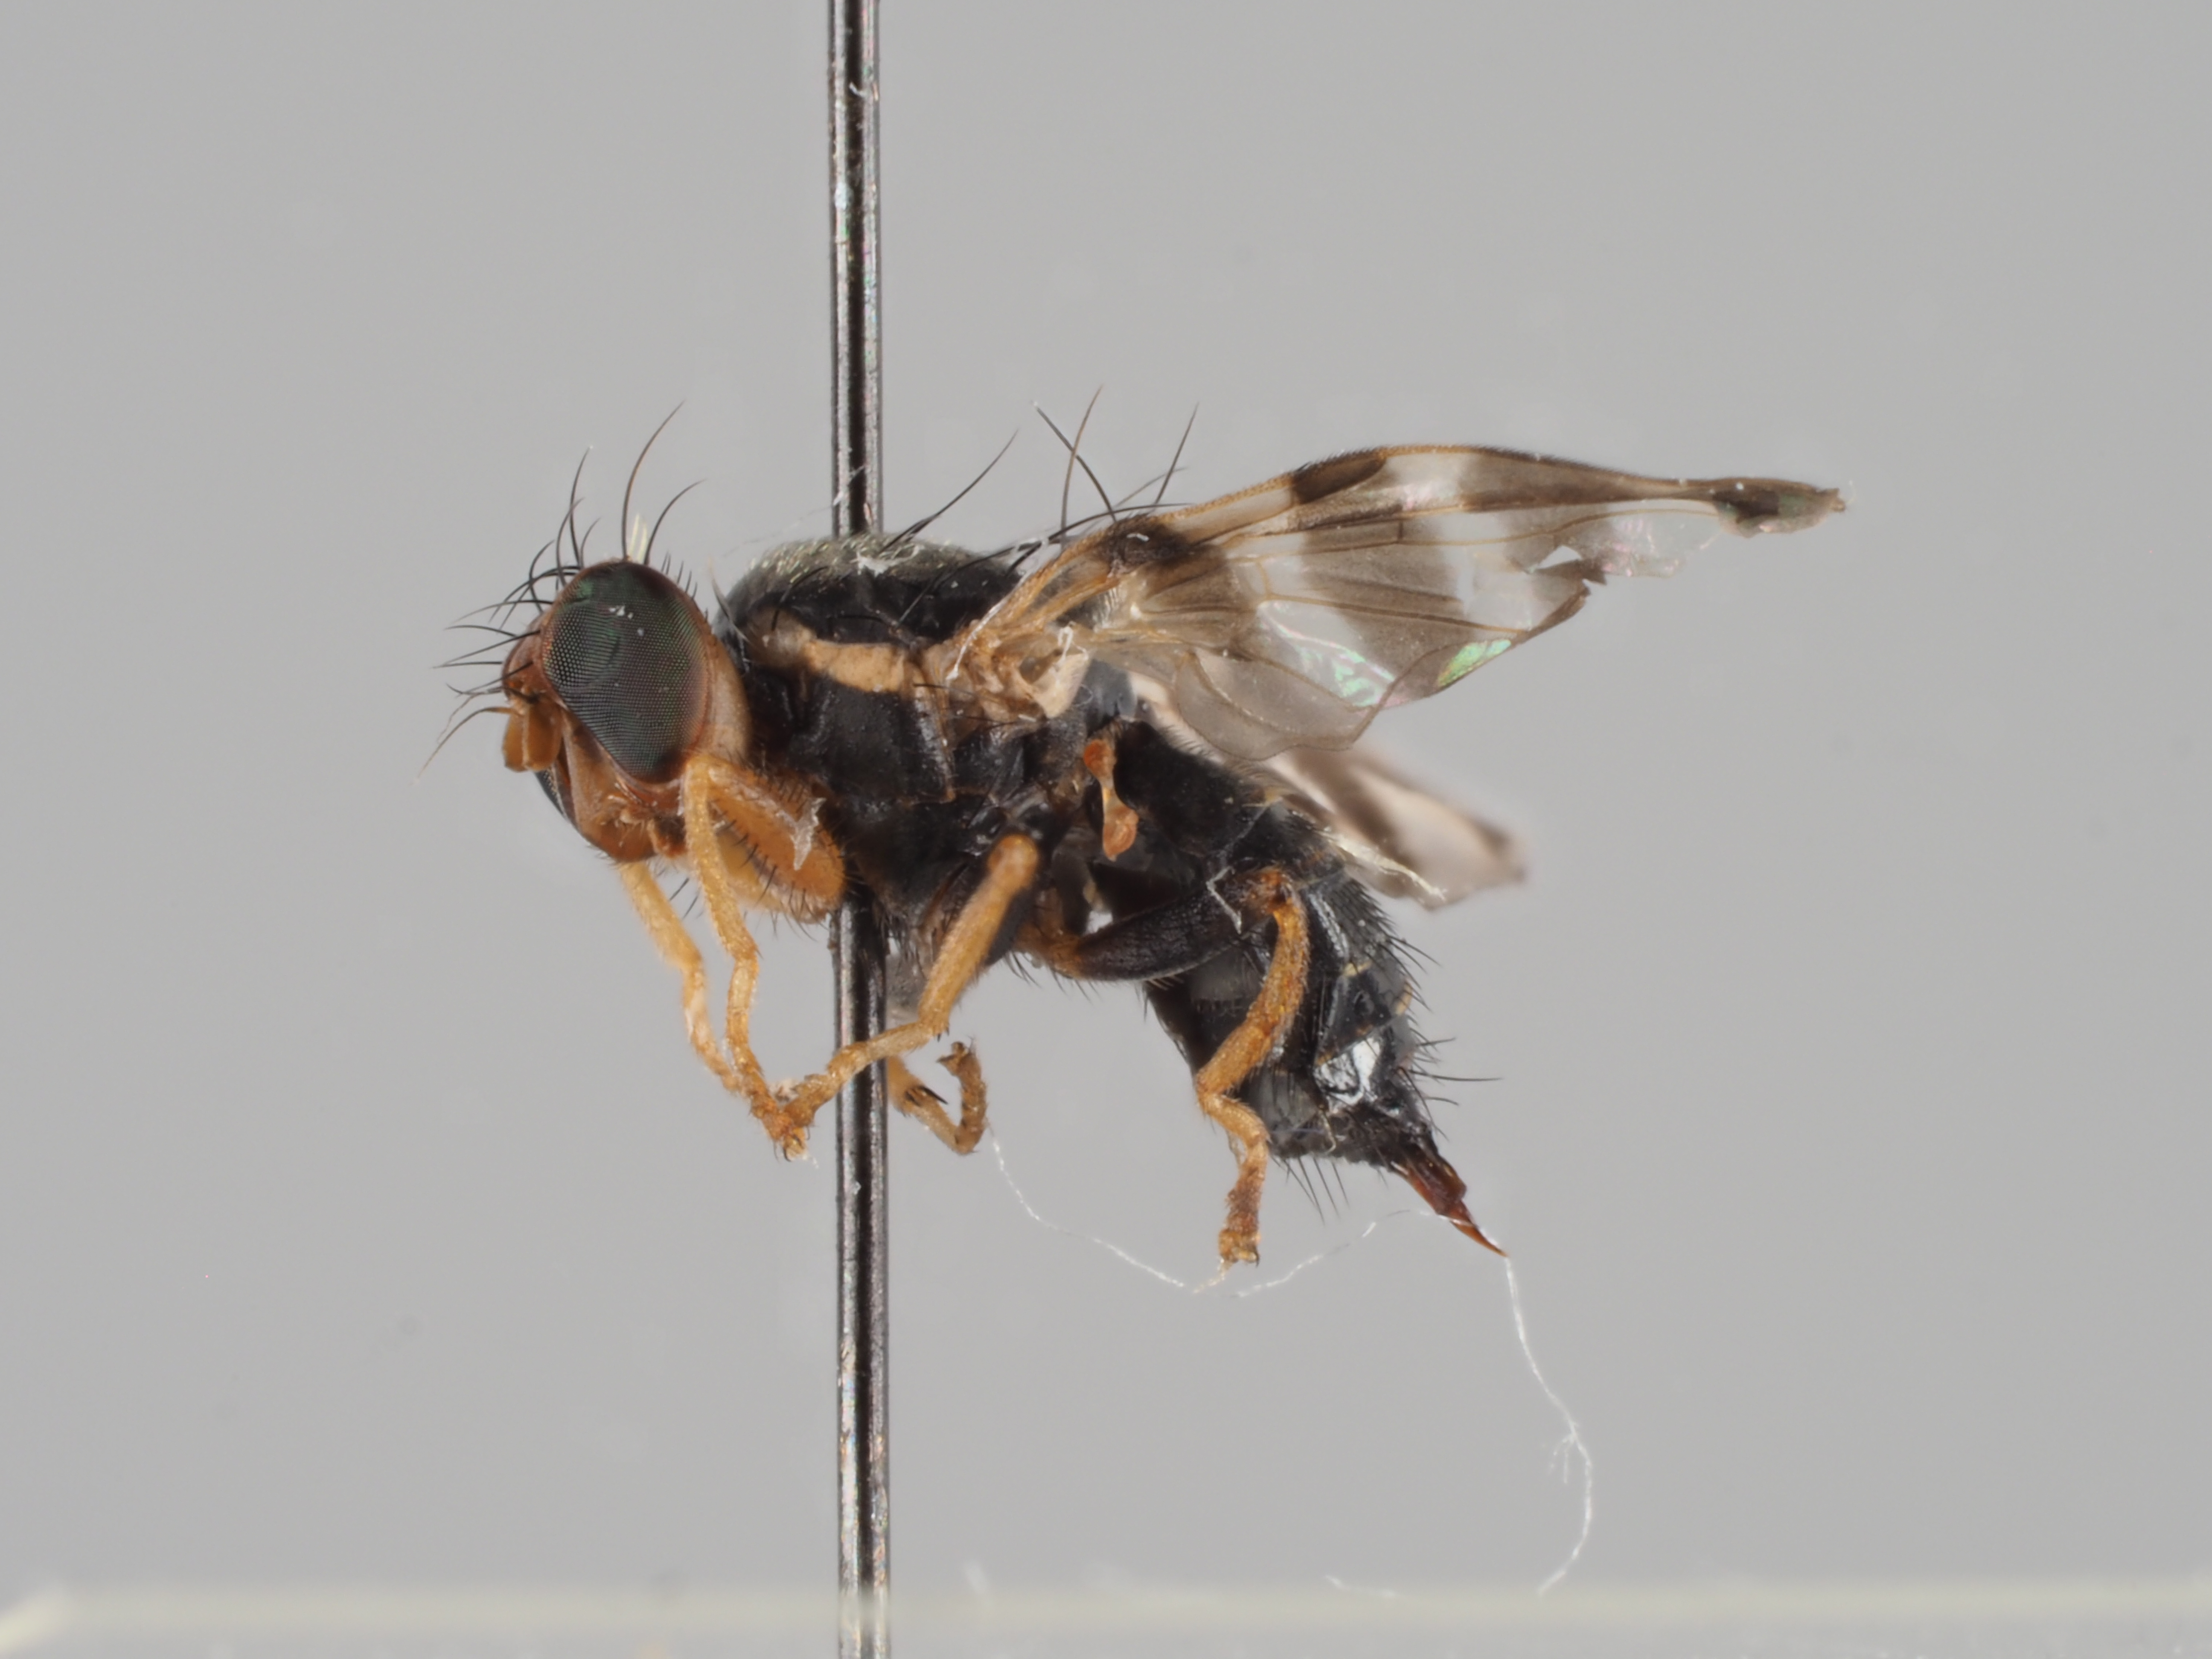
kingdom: Animalia
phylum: Arthropoda
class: Insecta
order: Diptera
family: Tephritidae
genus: Rhagoletis
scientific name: Rhagoletis batava
